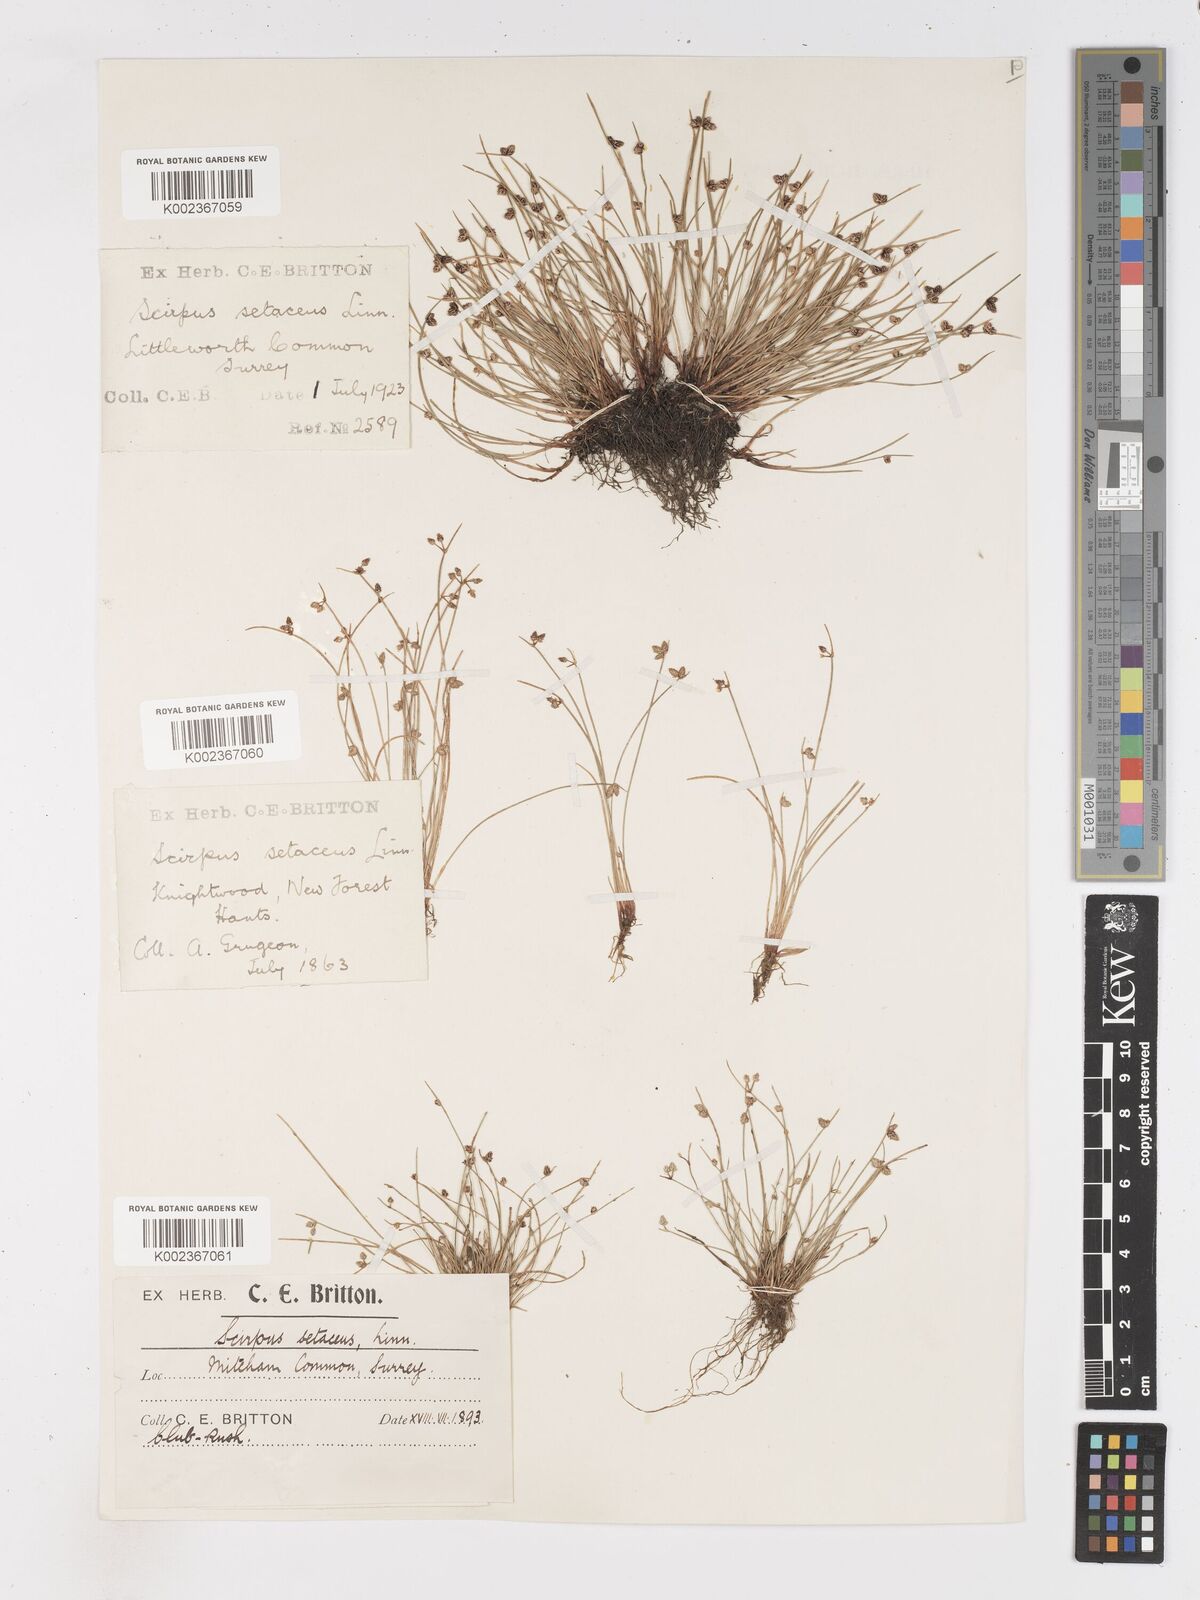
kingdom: Plantae
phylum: Tracheophyta
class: Liliopsida
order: Poales
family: Cyperaceae
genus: Isolepis
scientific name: Isolepis setacea
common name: Bristle club-rush
